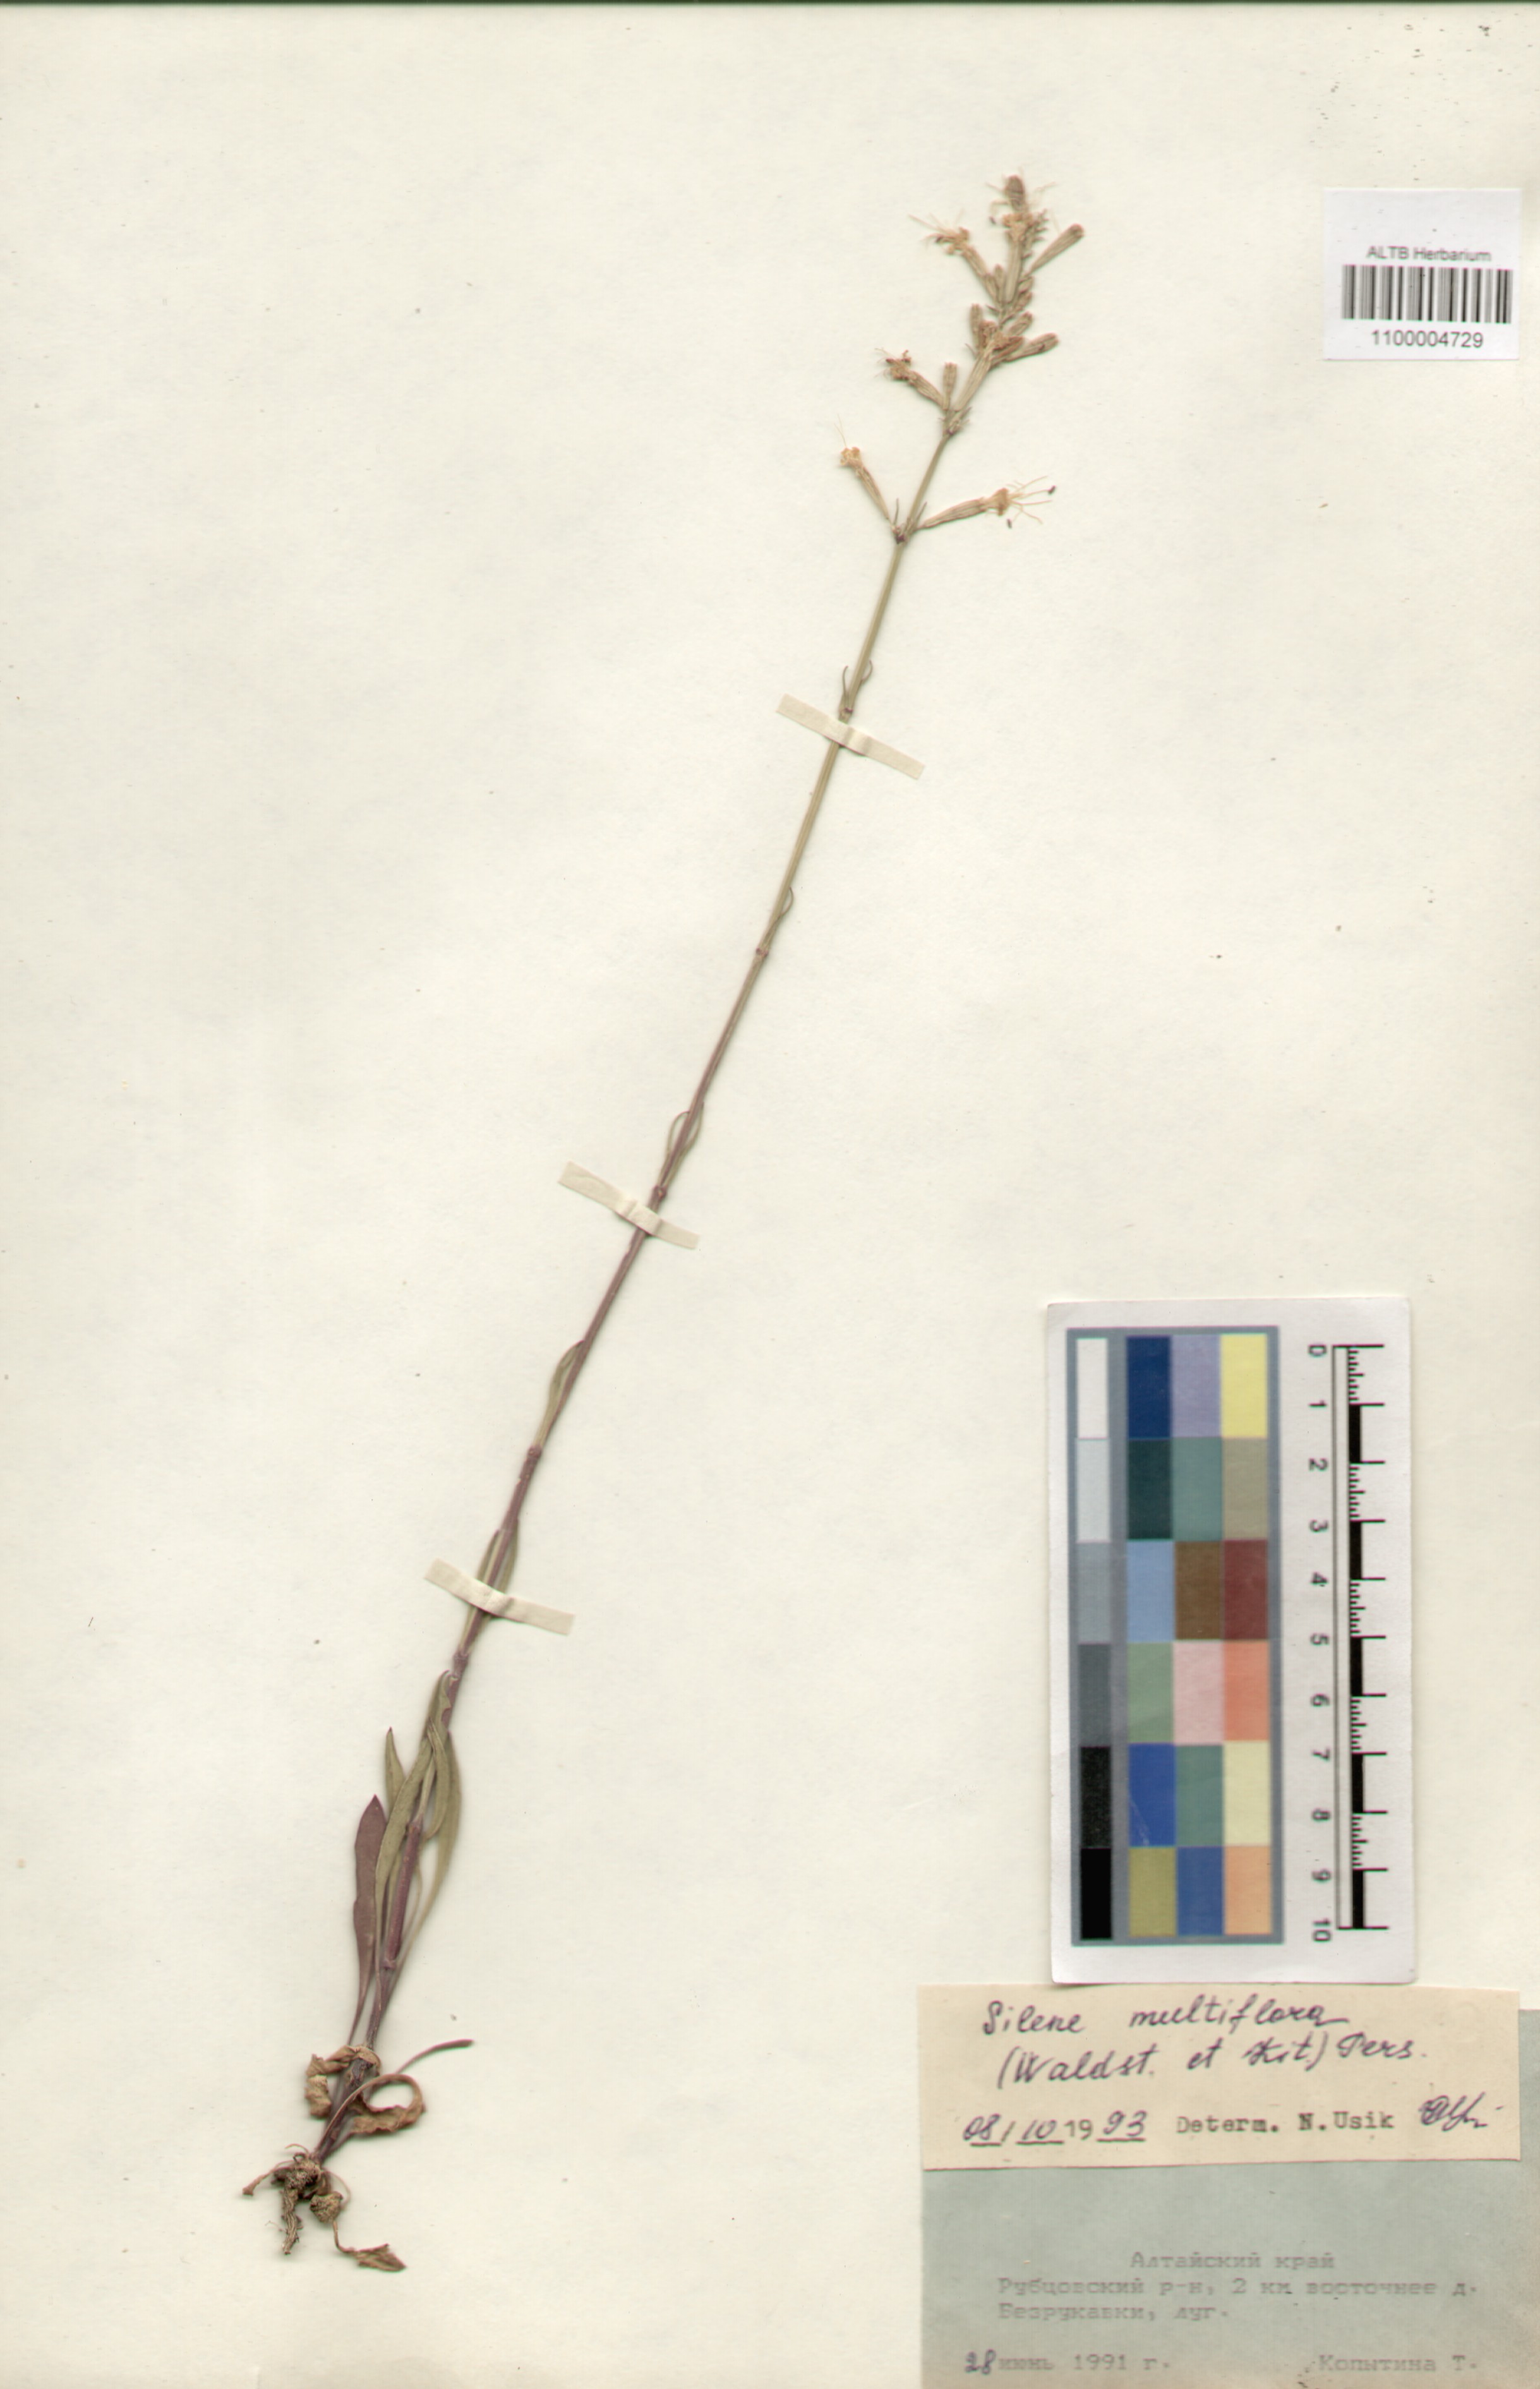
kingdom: Plantae
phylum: Tracheophyta
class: Magnoliopsida
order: Caryophyllales
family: Caryophyllaceae
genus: Silene
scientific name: Silene multiflora
